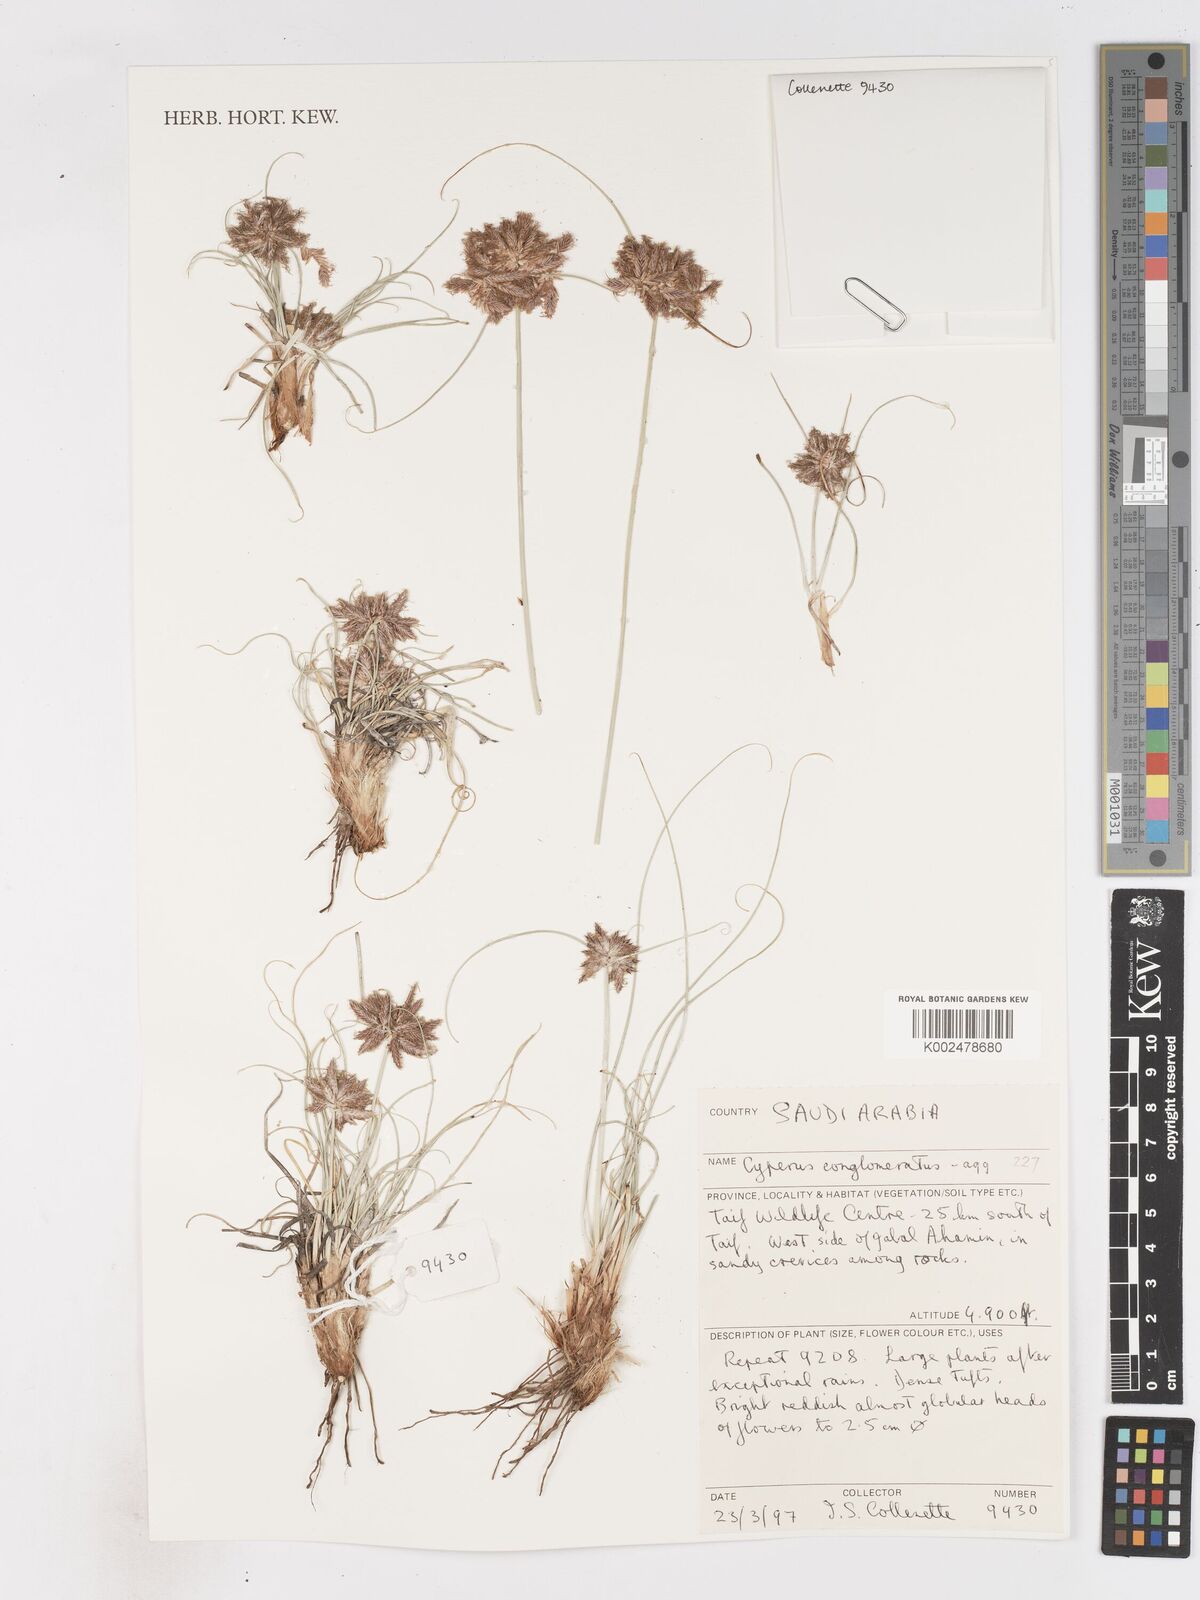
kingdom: Plantae
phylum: Tracheophyta
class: Liliopsida
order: Poales
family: Cyperaceae
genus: Cyperus
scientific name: Cyperus conglomeratus
